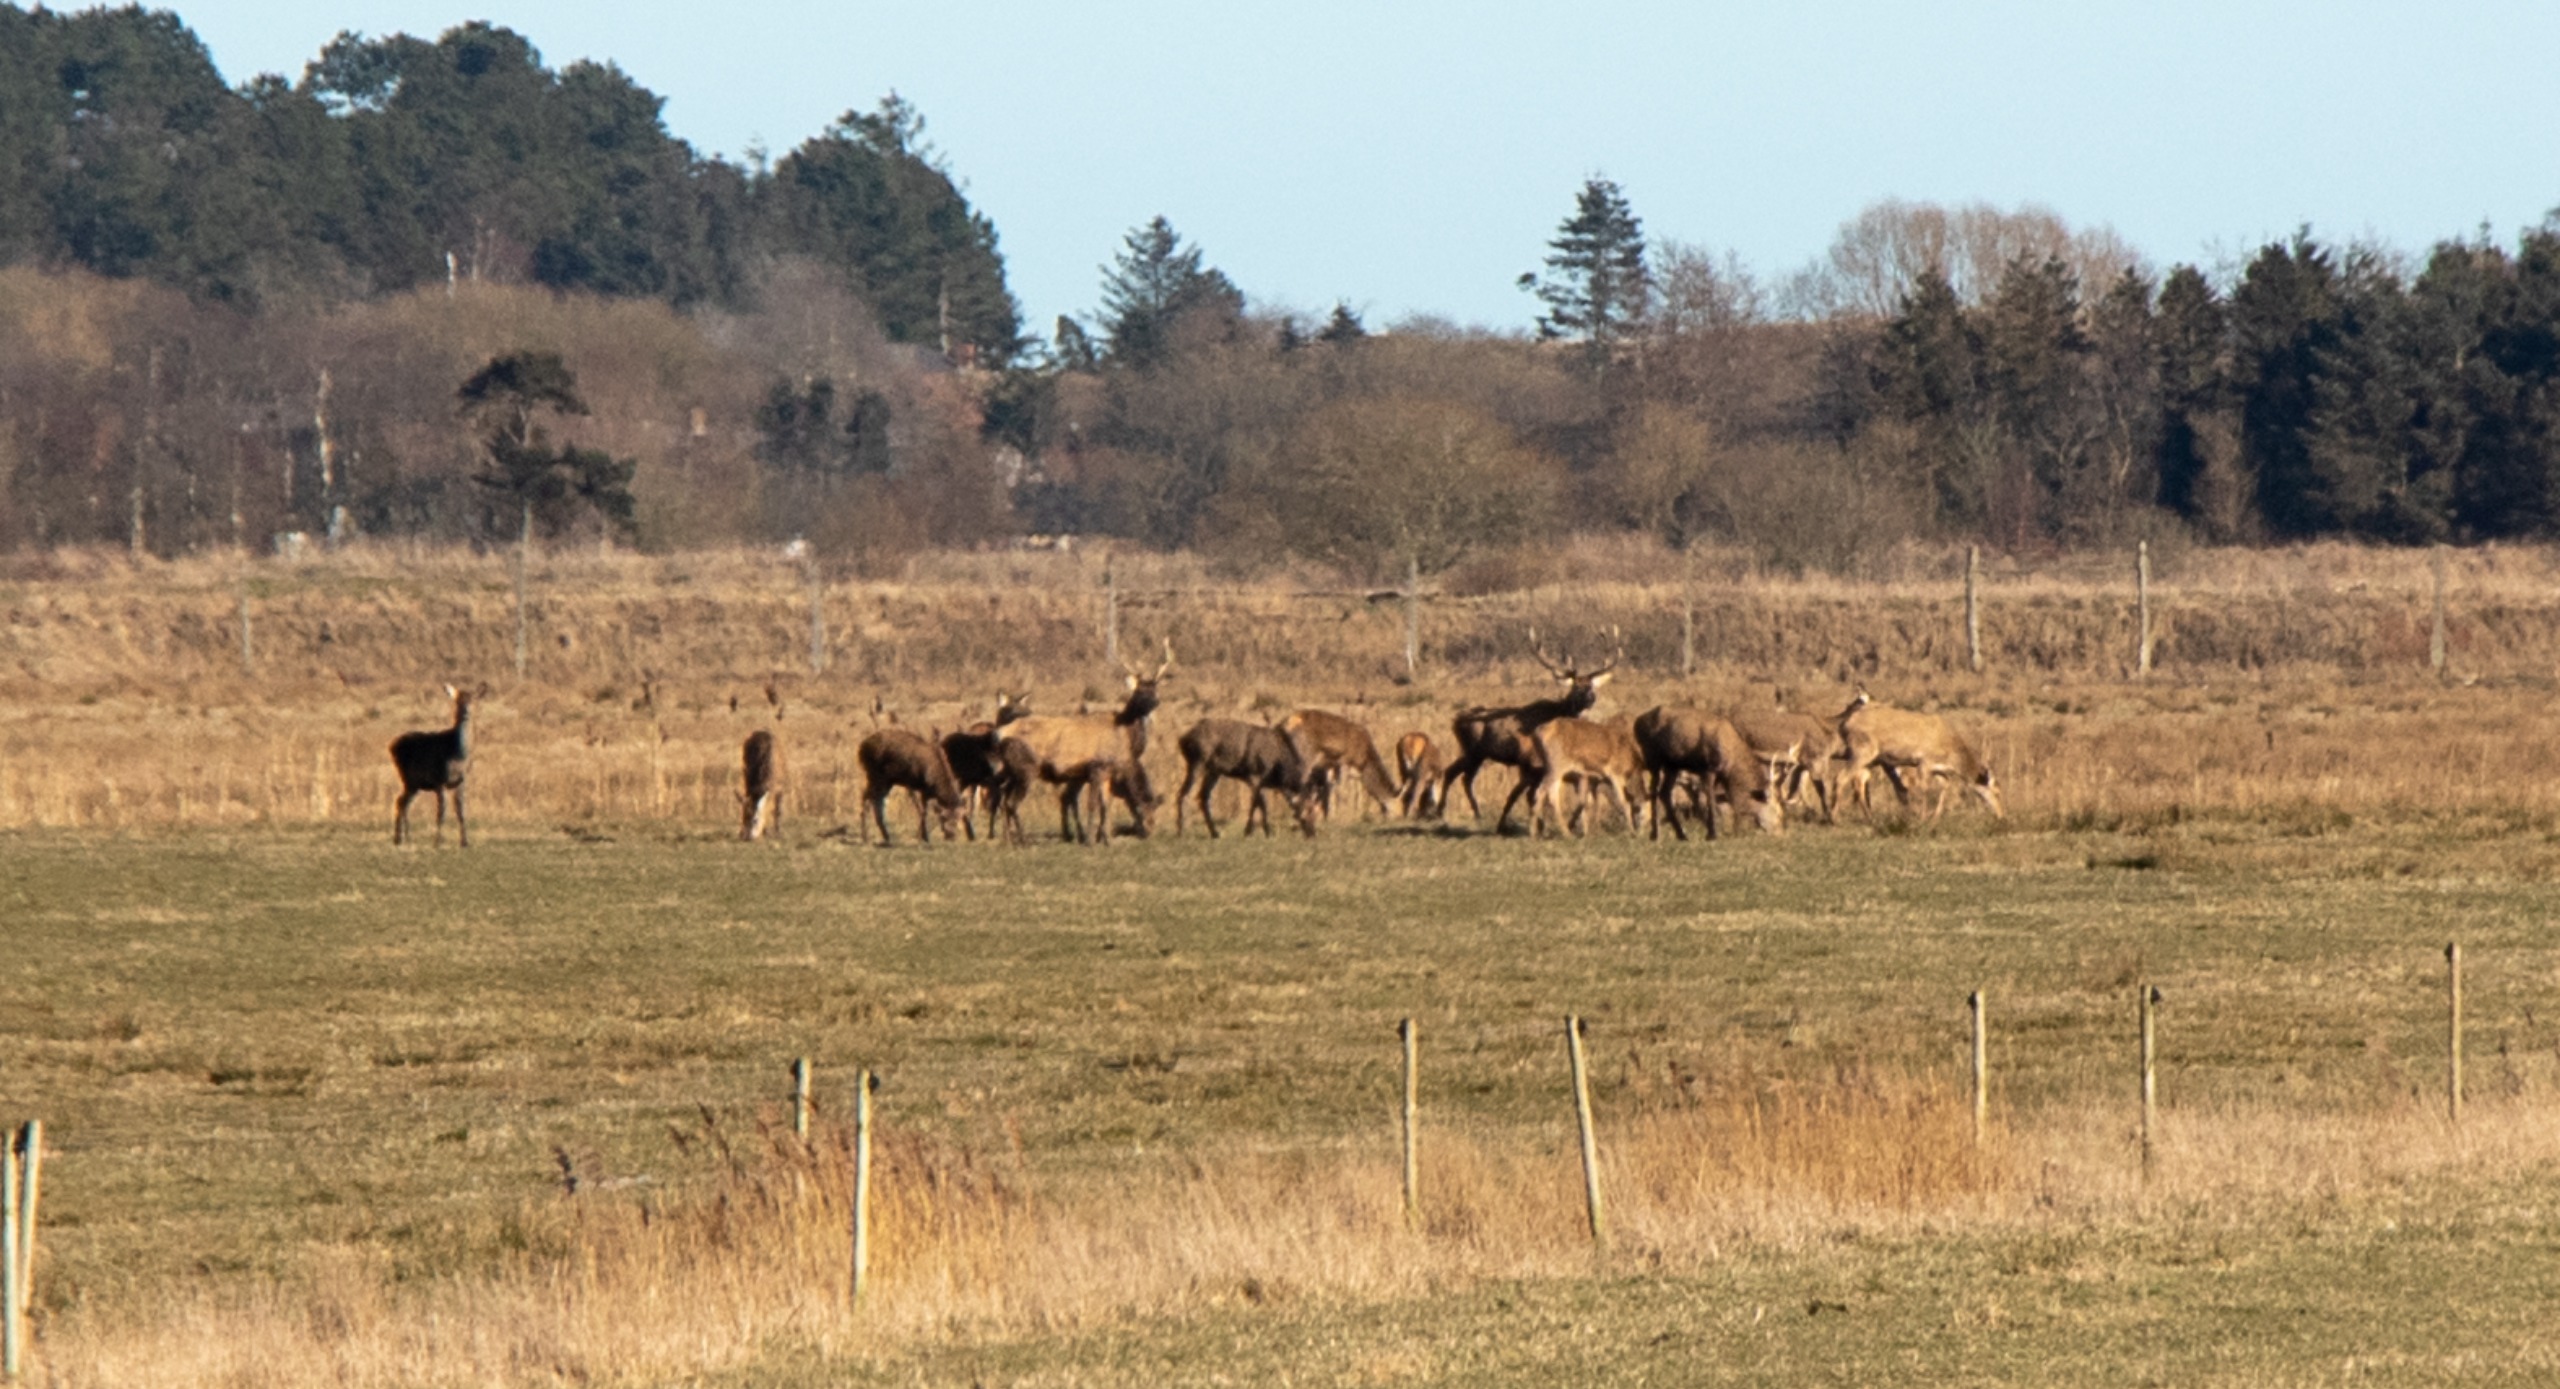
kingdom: Animalia
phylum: Chordata
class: Mammalia
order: Artiodactyla
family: Cervidae
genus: Cervus
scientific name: Cervus elaphus
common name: Krondyr
